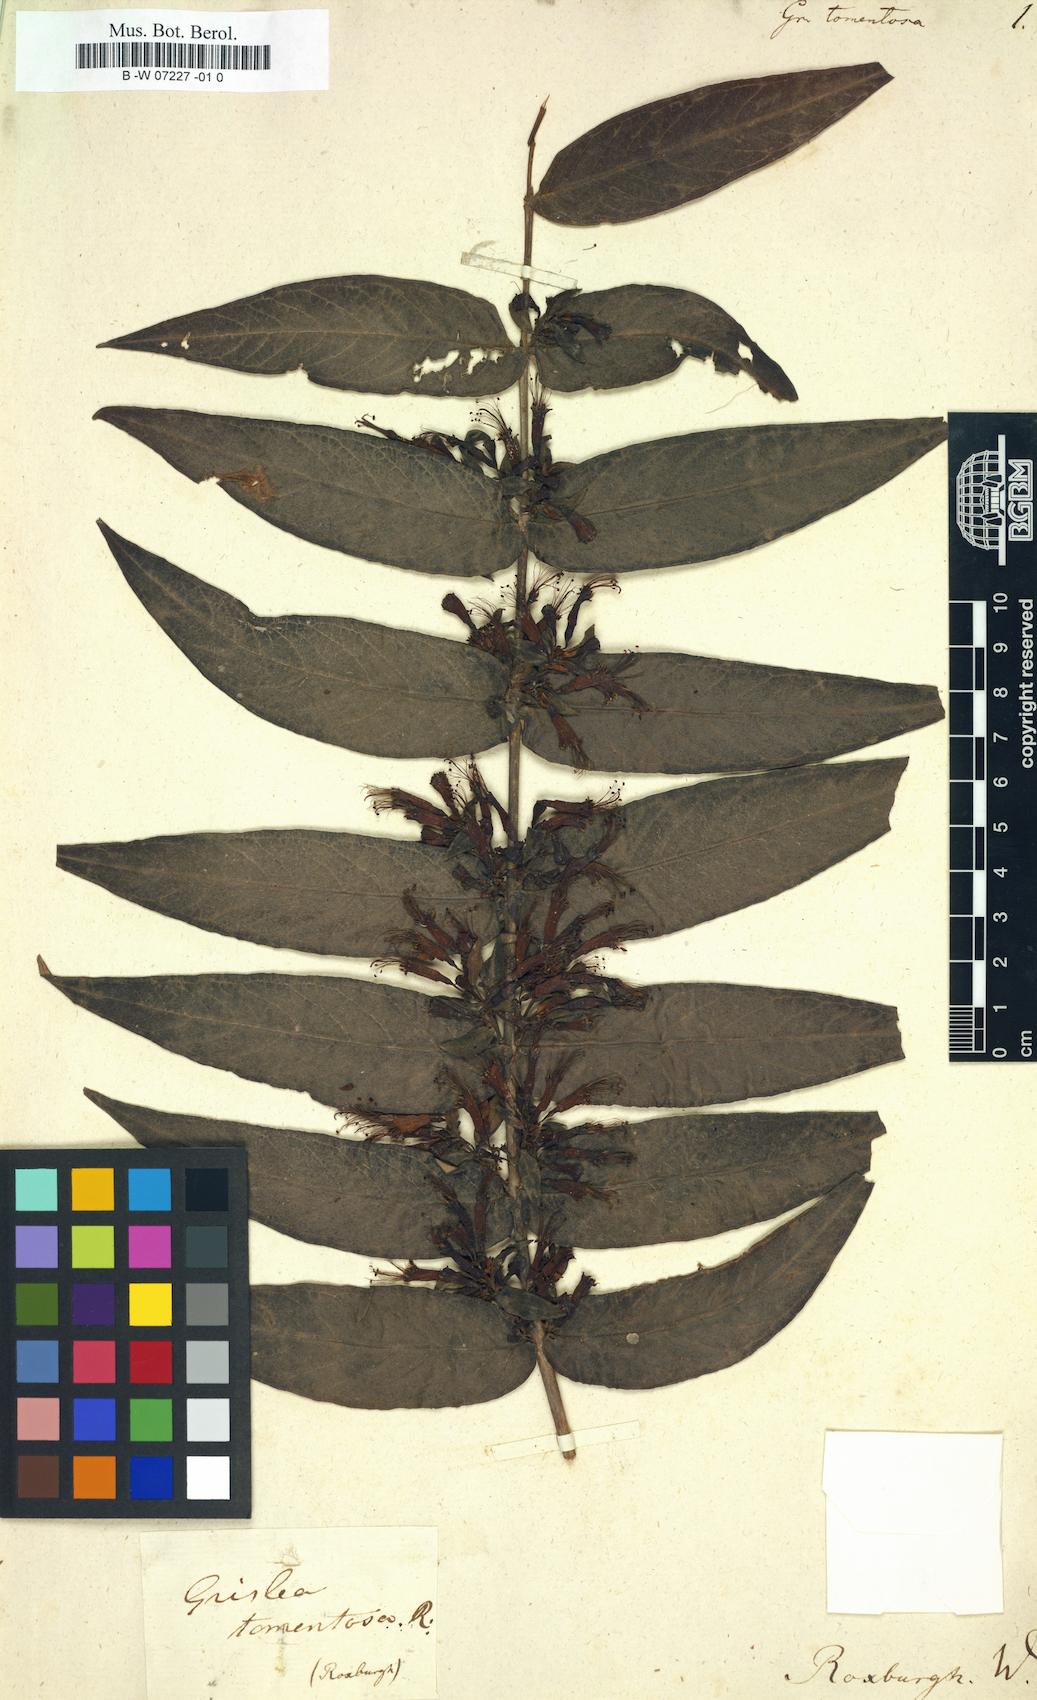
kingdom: Plantae
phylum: Tracheophyta
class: Magnoliopsida
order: Myrtales
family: Lythraceae
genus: Woodfordia
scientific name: Woodfordia fruticosa
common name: Shiranji-tea
